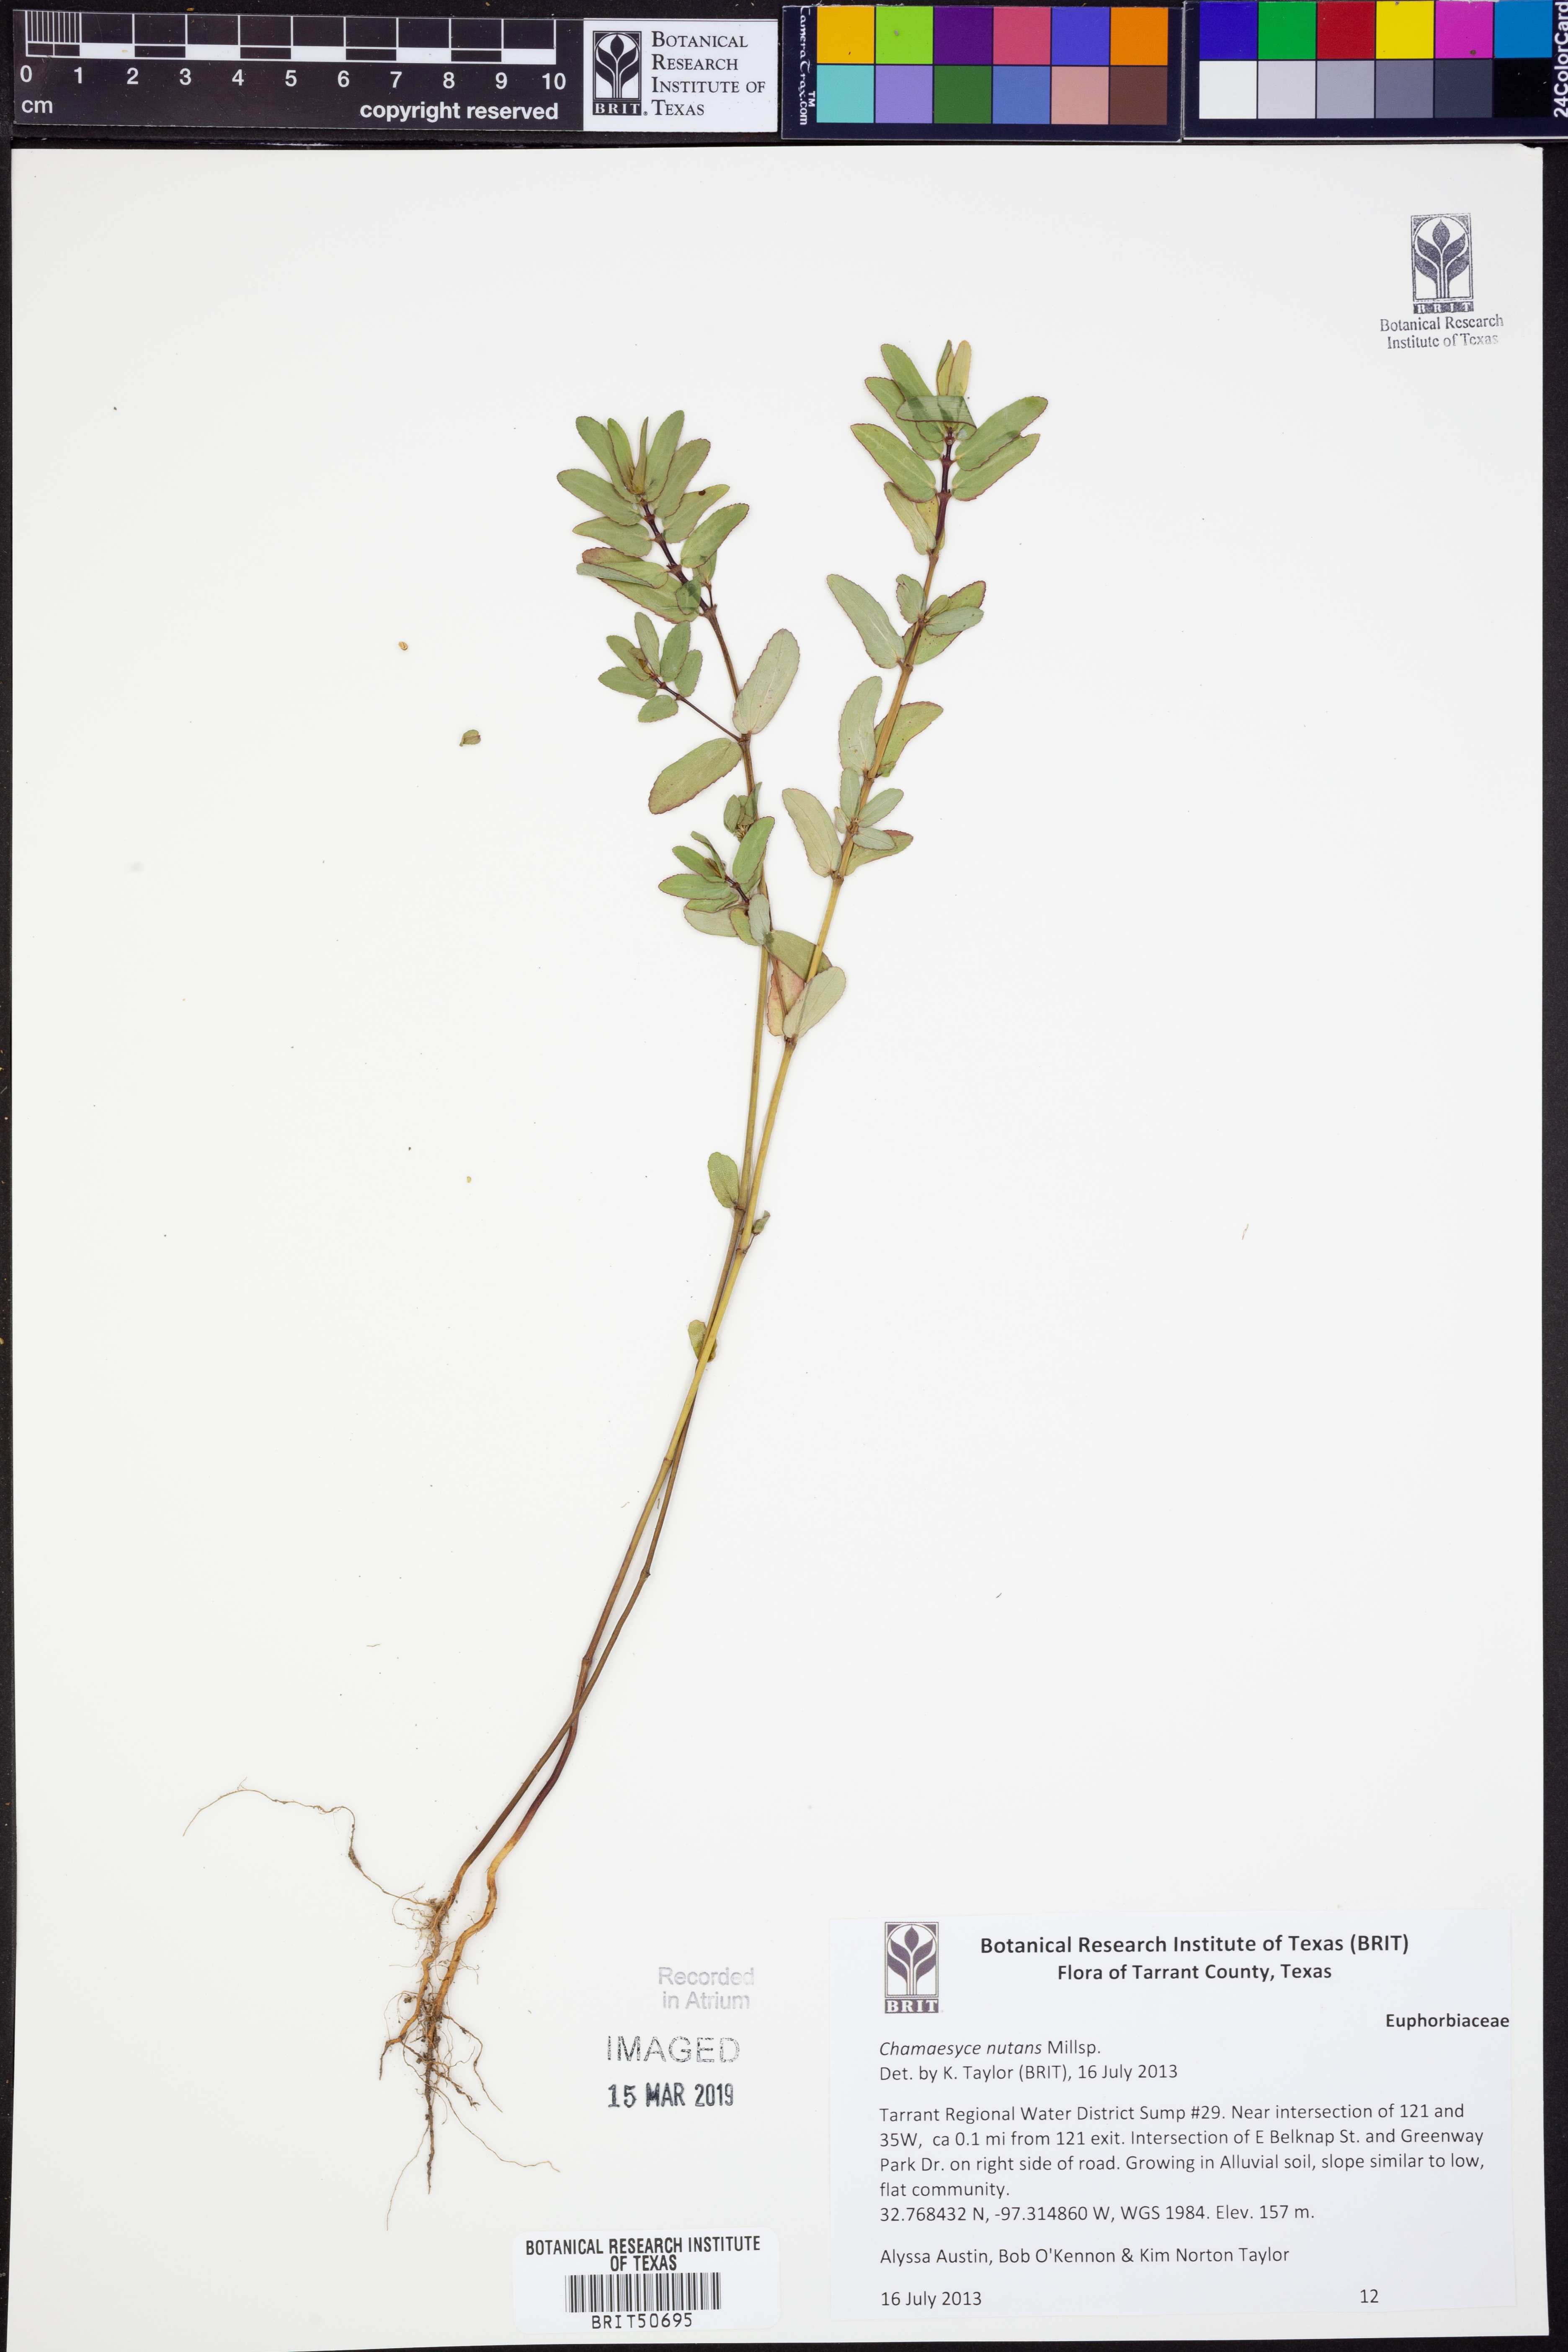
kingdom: Plantae
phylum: Tracheophyta
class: Magnoliopsida
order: Malpighiales
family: Euphorbiaceae
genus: Euphorbia
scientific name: Euphorbia nutans
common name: Eyebane
